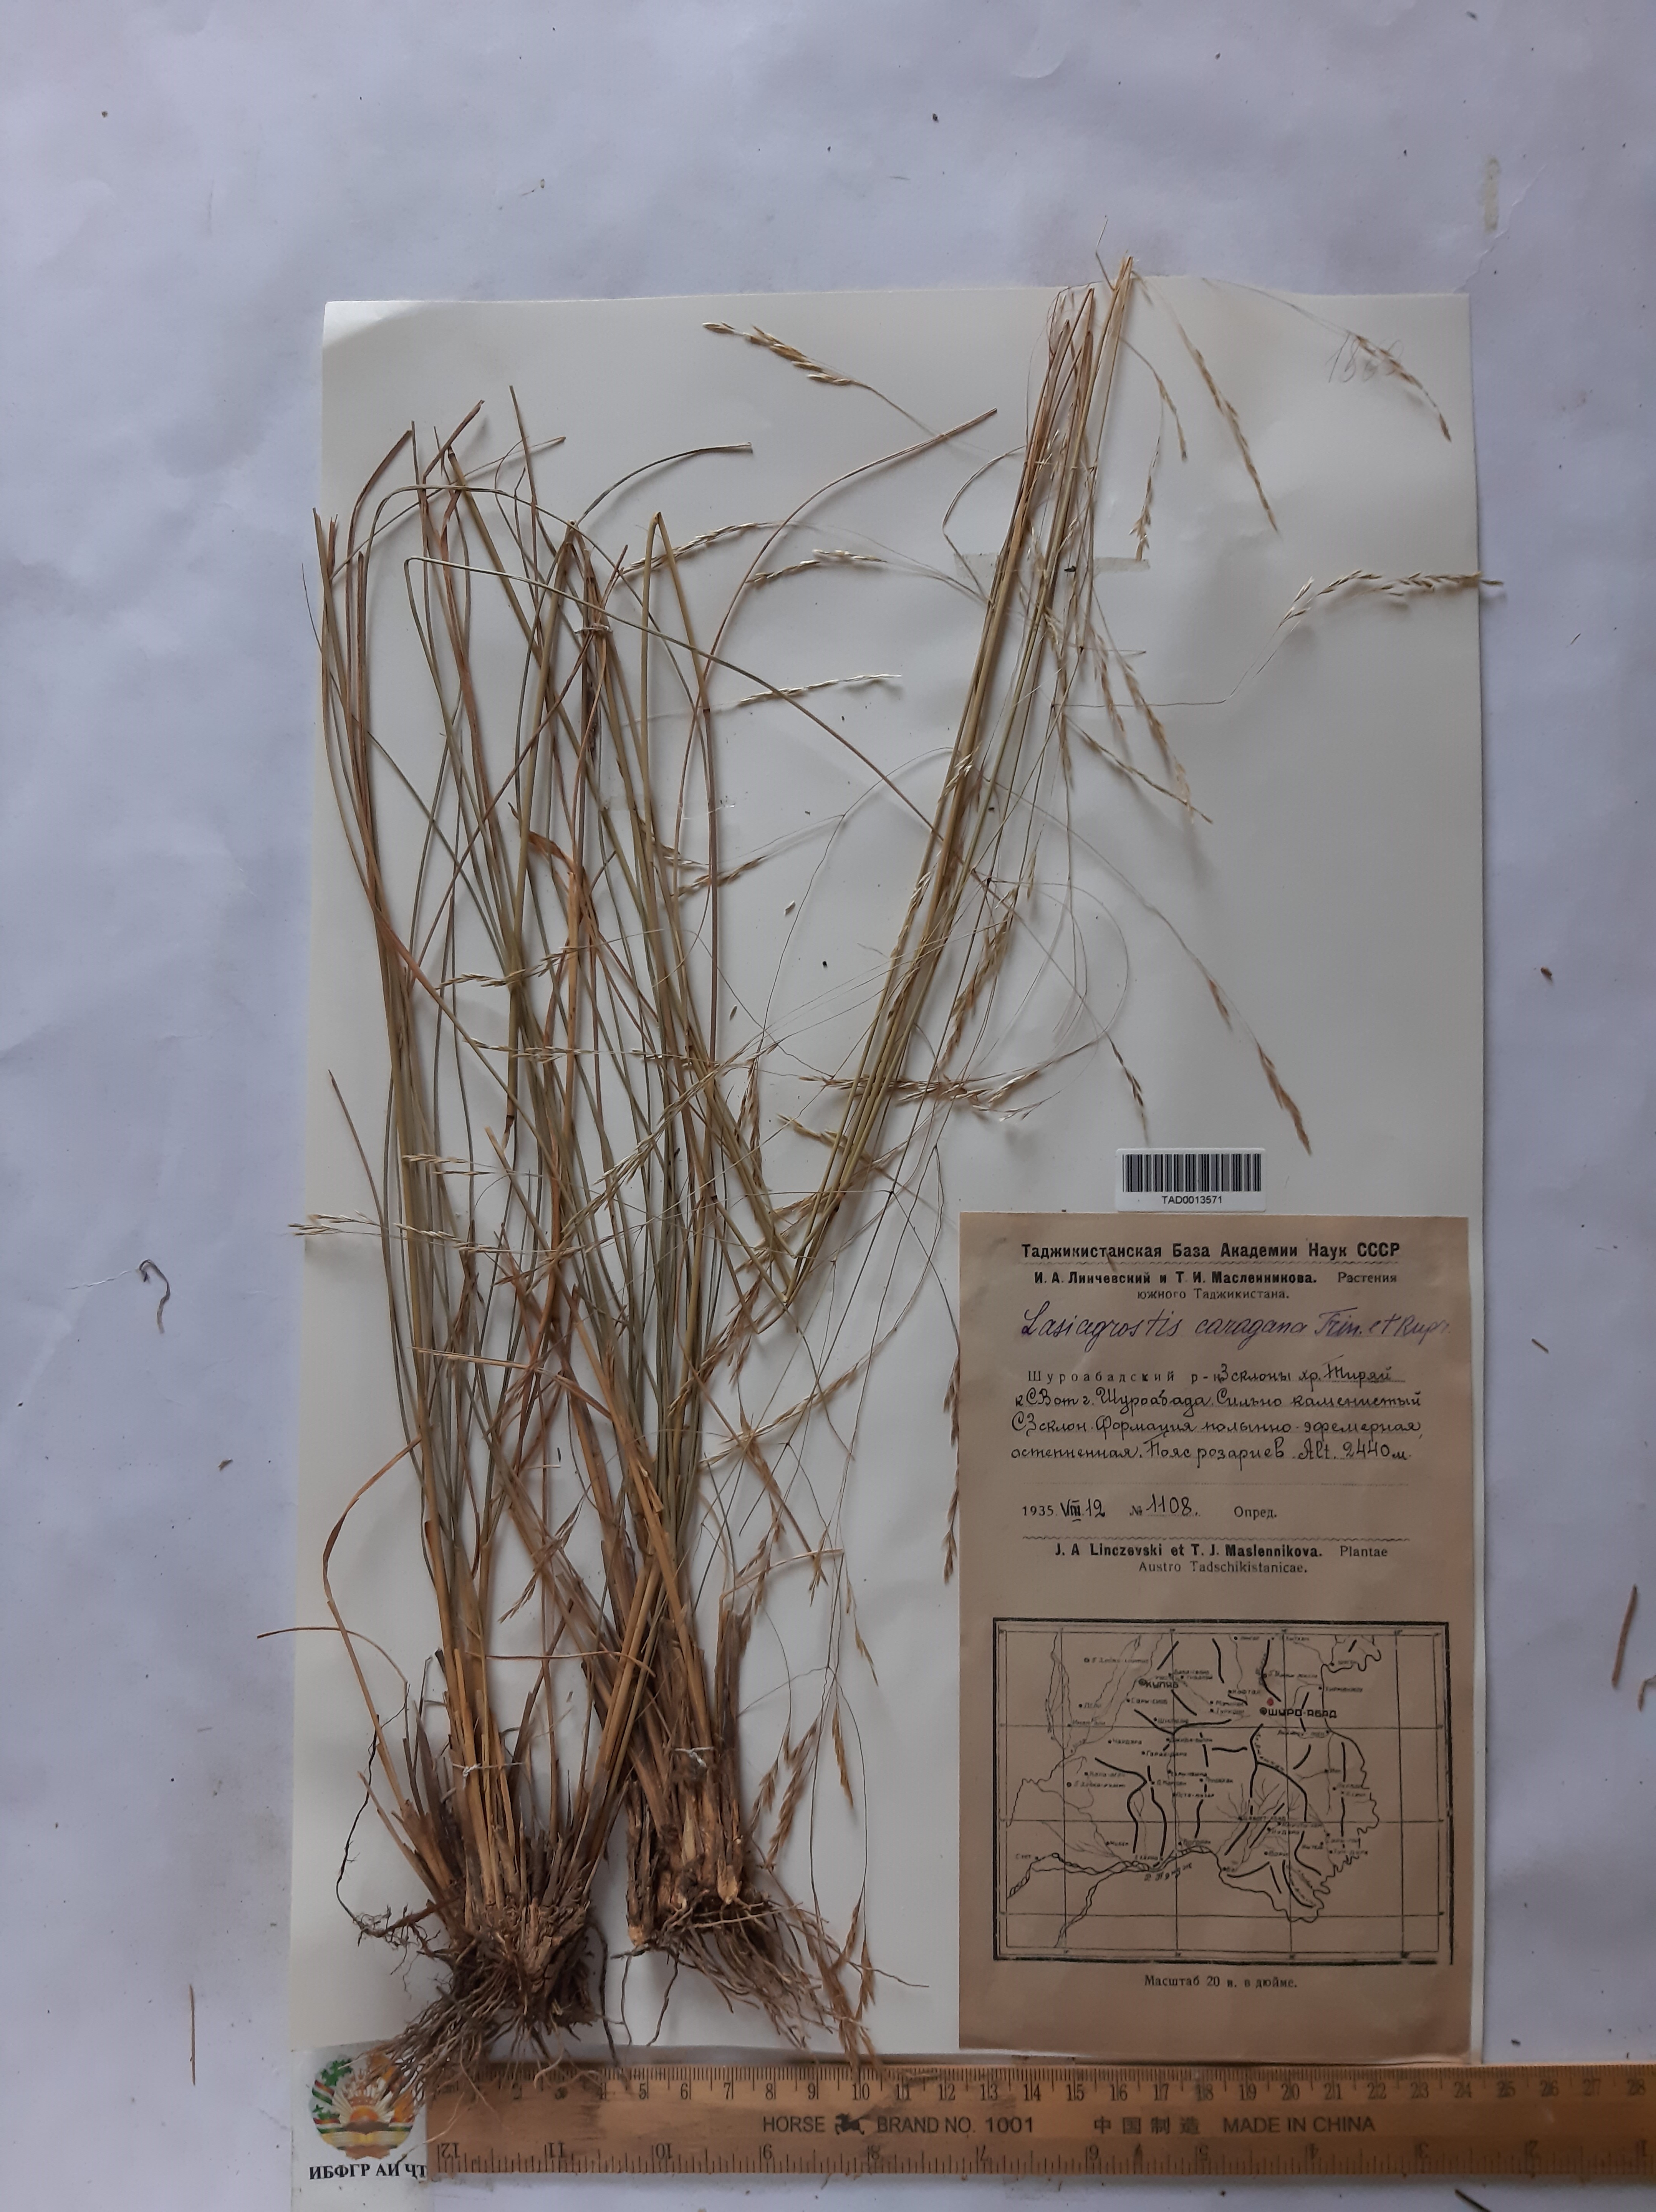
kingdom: Plantae
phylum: Tracheophyta
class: Liliopsida
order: Poales
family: Poaceae
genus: Stipa
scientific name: Stipa conferta
